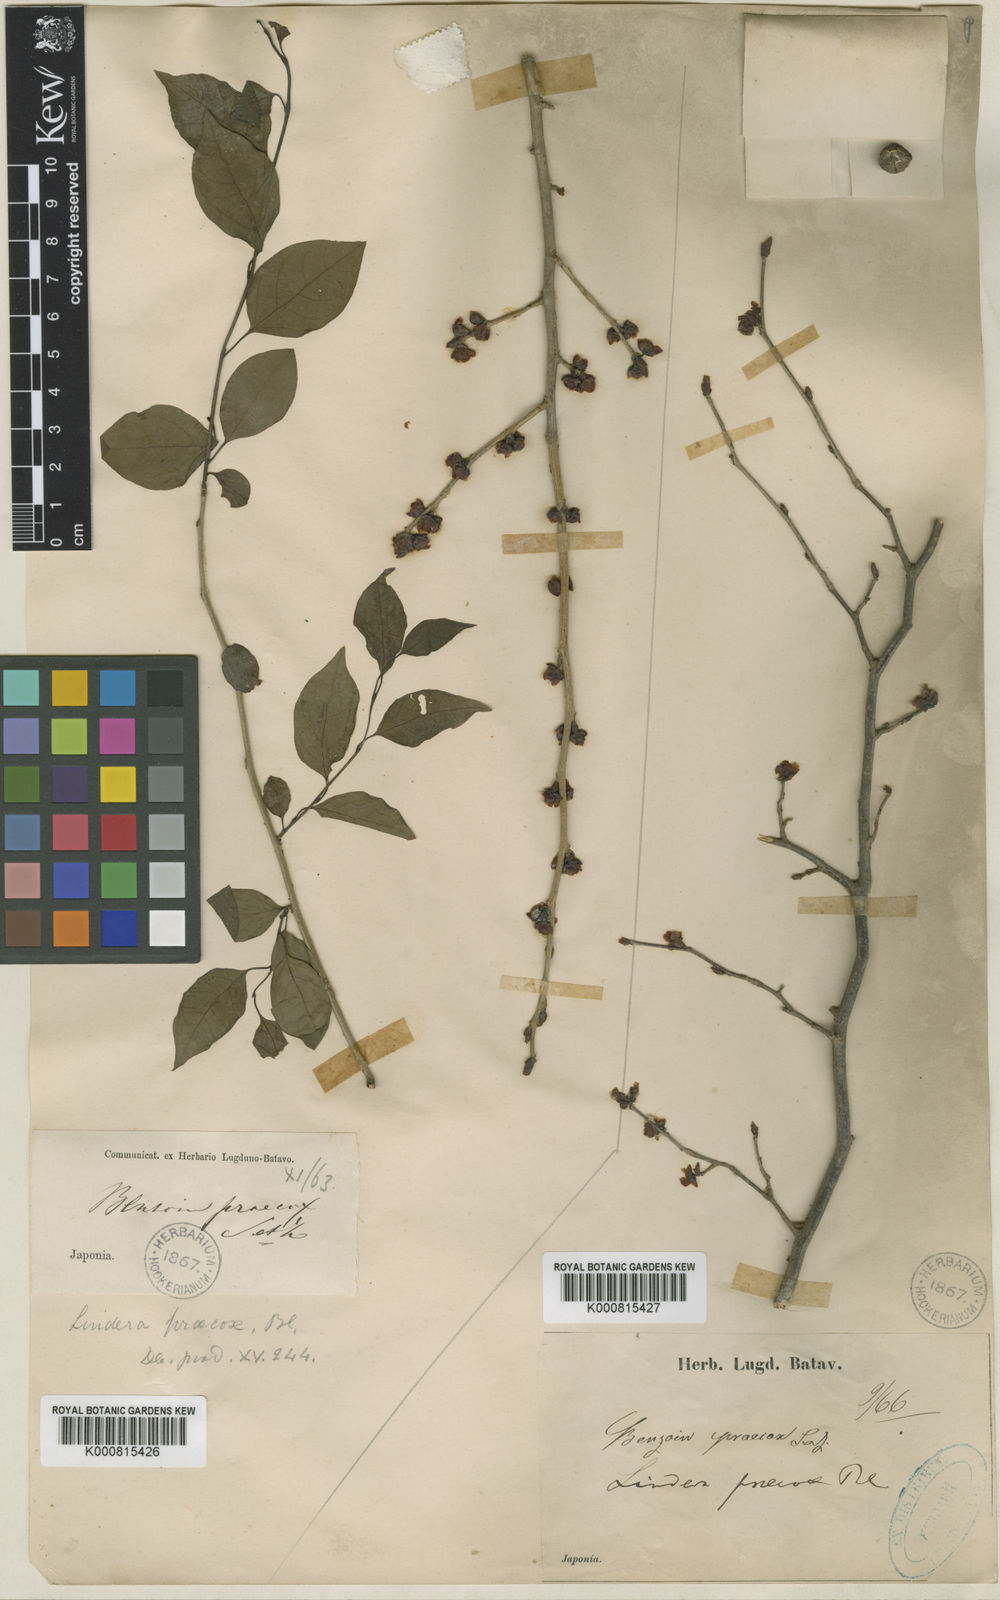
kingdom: Plantae
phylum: Tracheophyta
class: Magnoliopsida
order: Laurales
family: Lauraceae
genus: Lindera
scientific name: Lindera praecox
